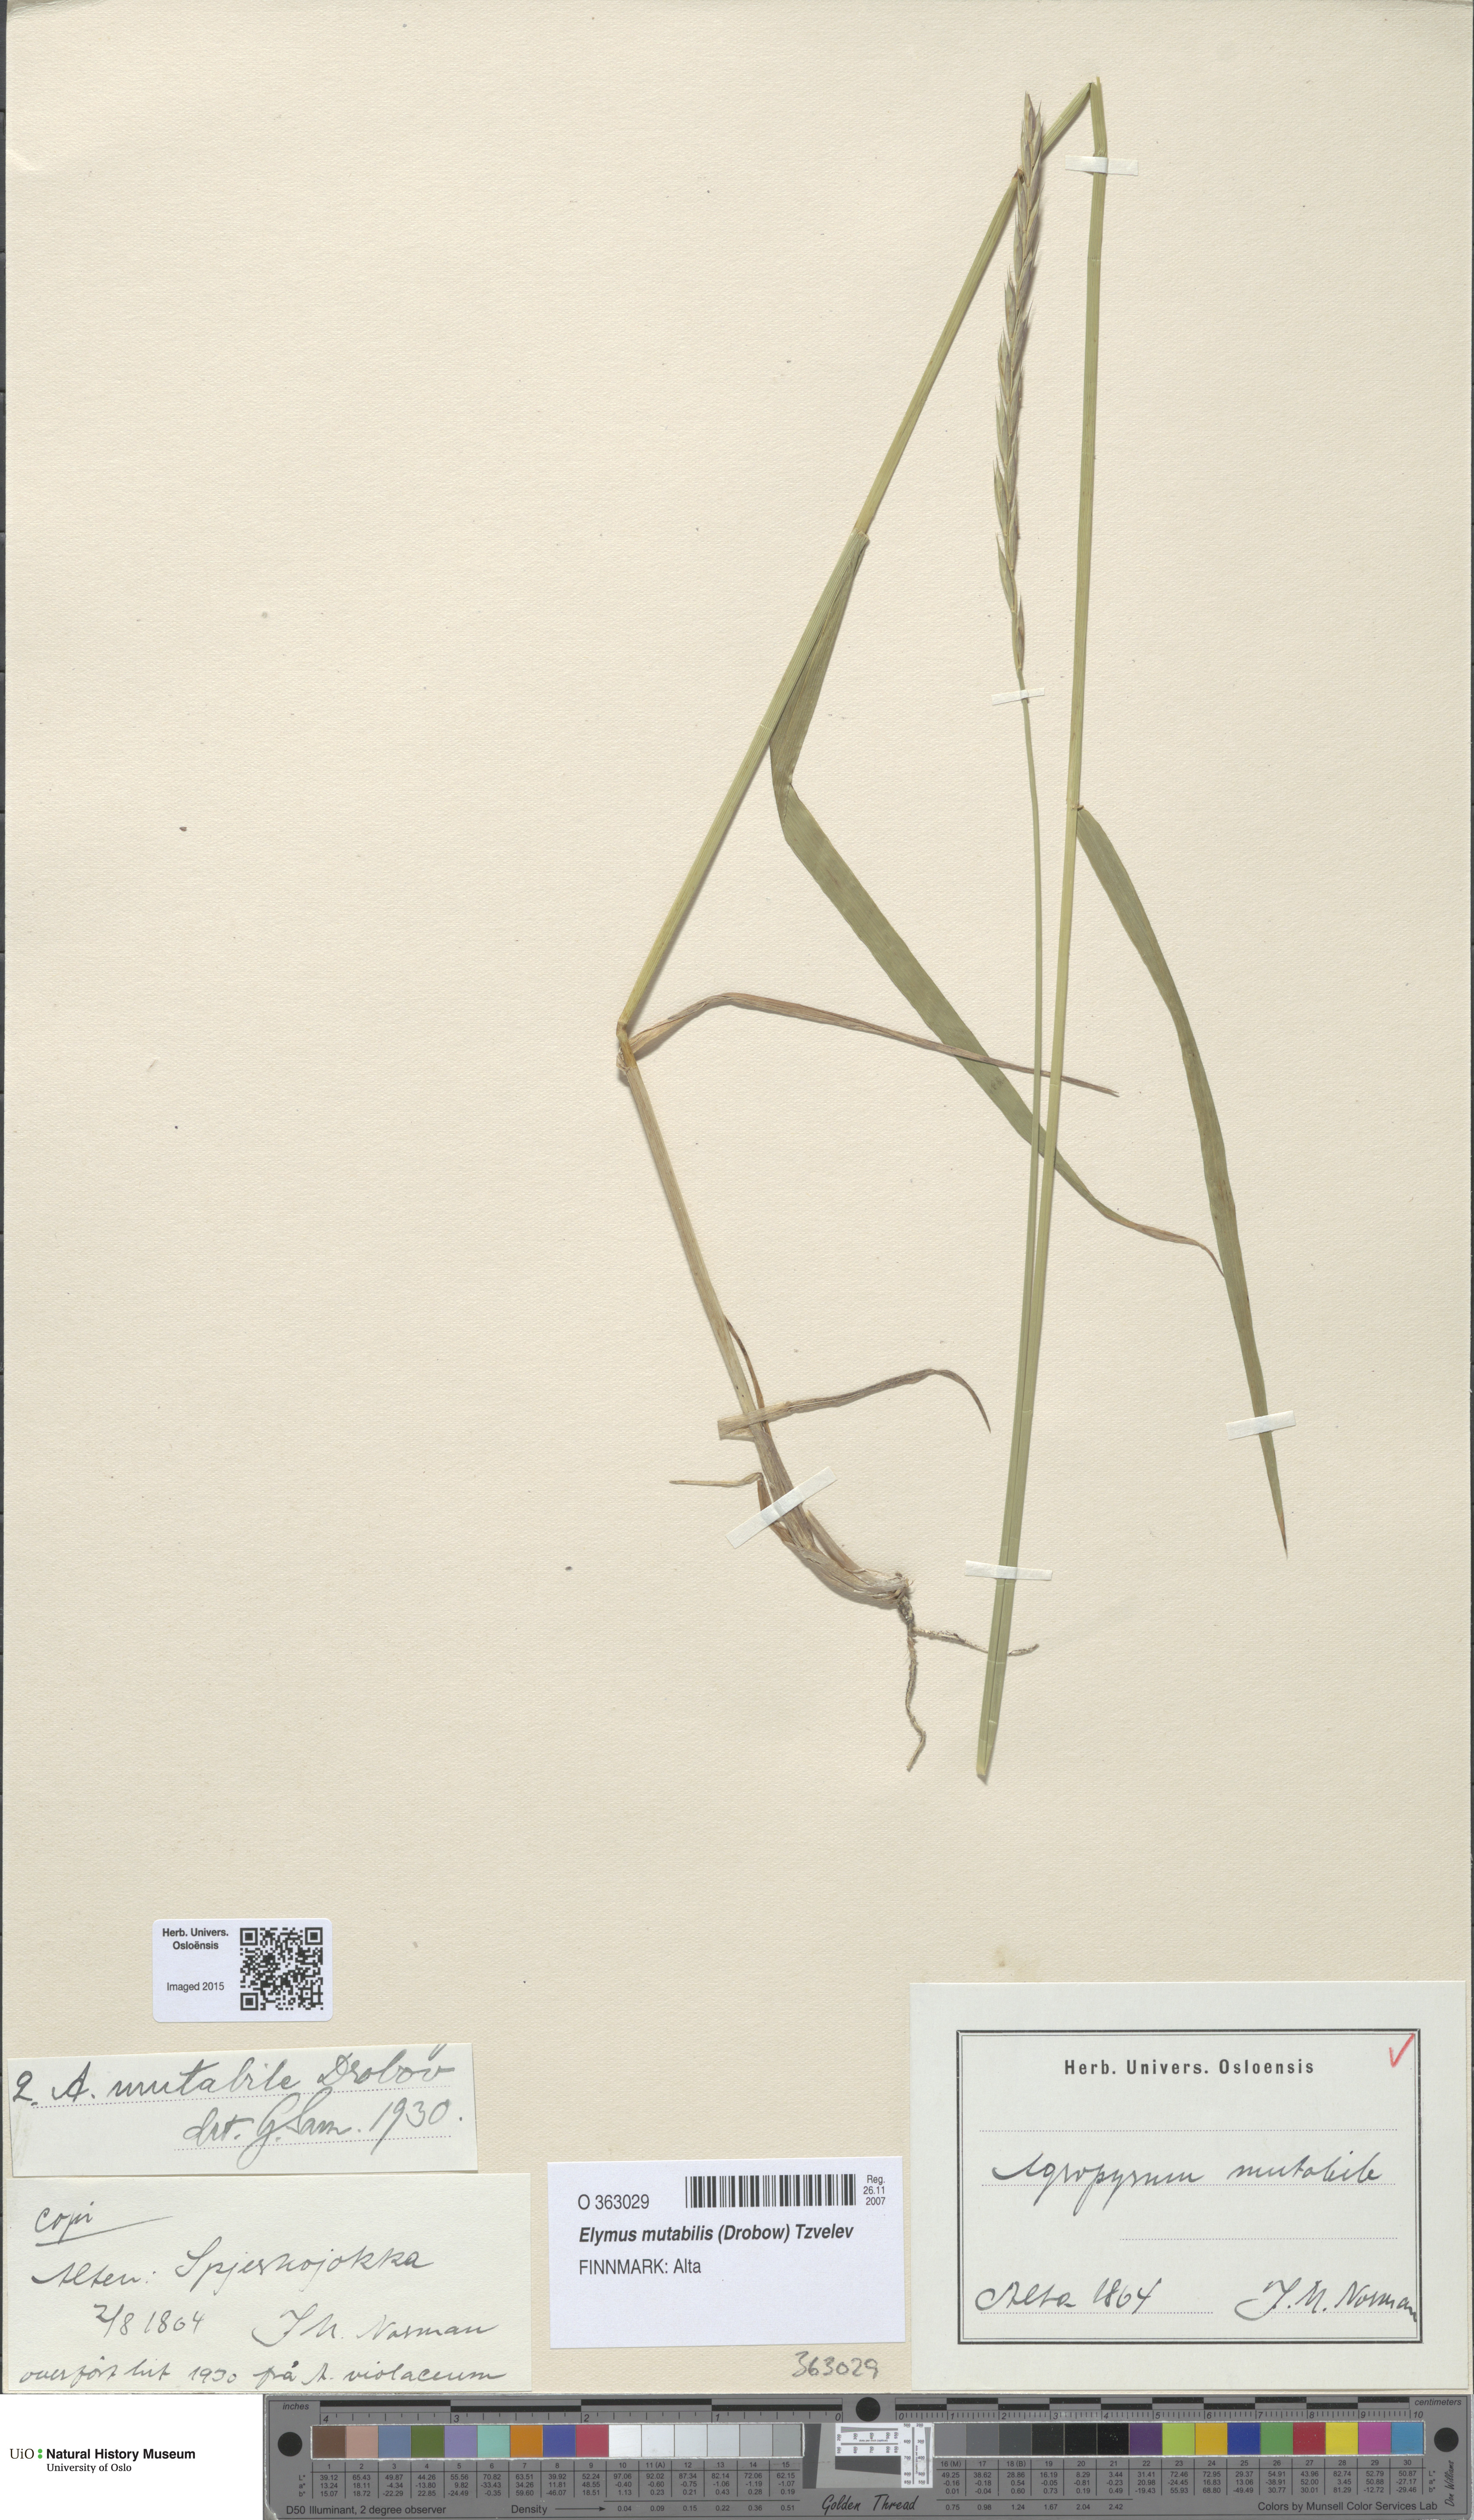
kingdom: Plantae
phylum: Tracheophyta
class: Liliopsida
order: Poales
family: Poaceae
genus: Elymus
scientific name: Elymus mutabilis
